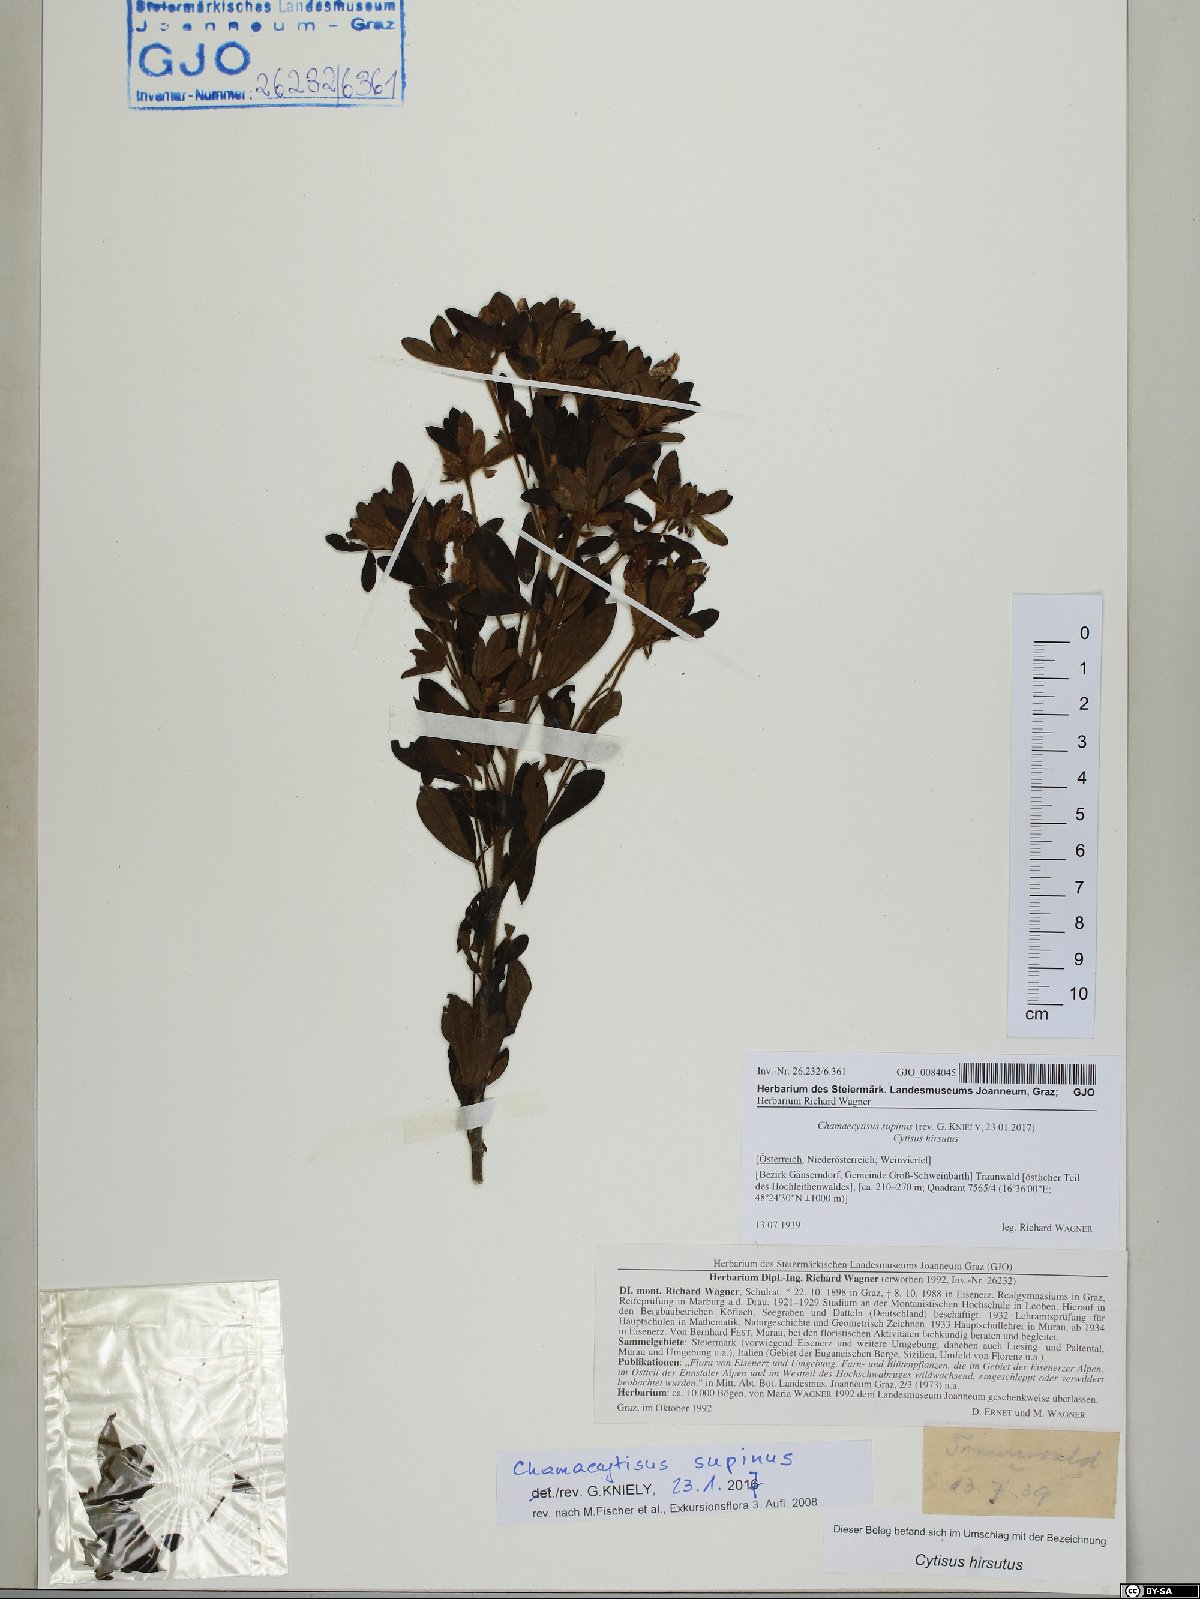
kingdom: Plantae
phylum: Tracheophyta
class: Magnoliopsida
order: Fabales
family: Fabaceae
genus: Chamaecytisus
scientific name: Chamaecytisus supinus
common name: Clustered broom
